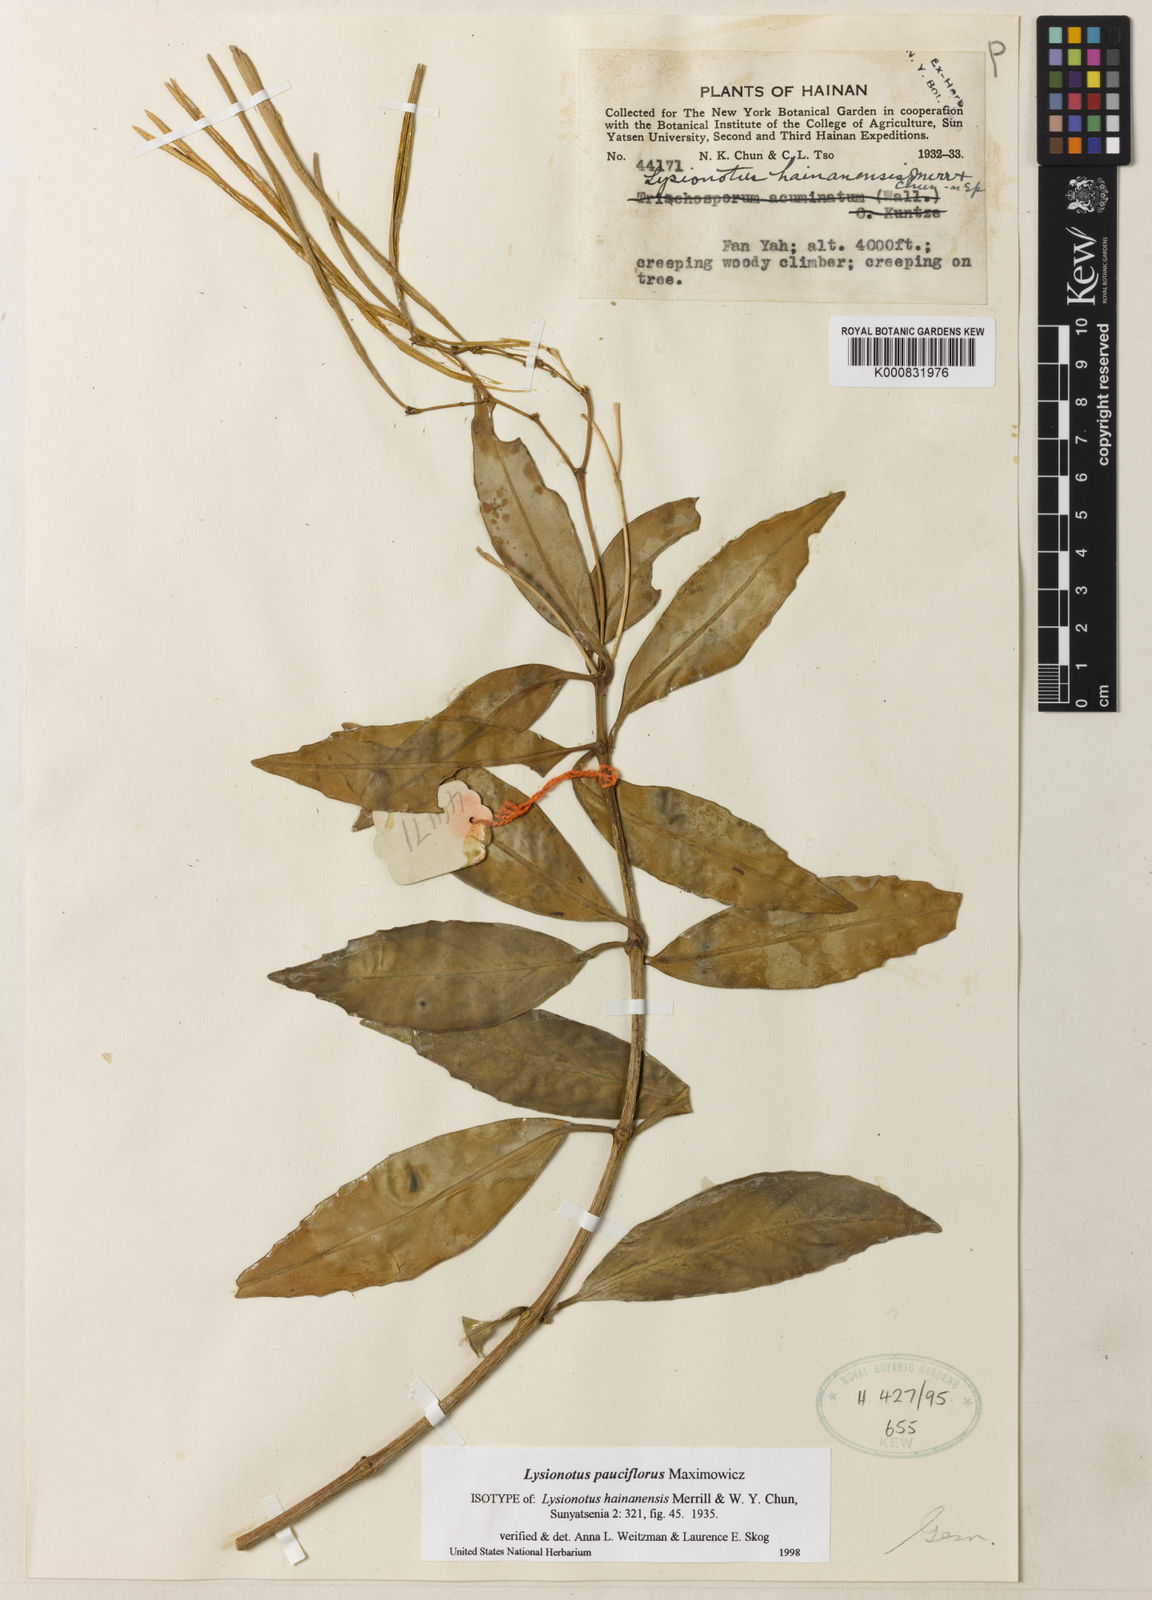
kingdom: Plantae
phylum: Tracheophyta
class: Magnoliopsida
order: Lamiales
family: Gesneriaceae
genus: Lysionotus
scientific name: Lysionotus pauciflorus
